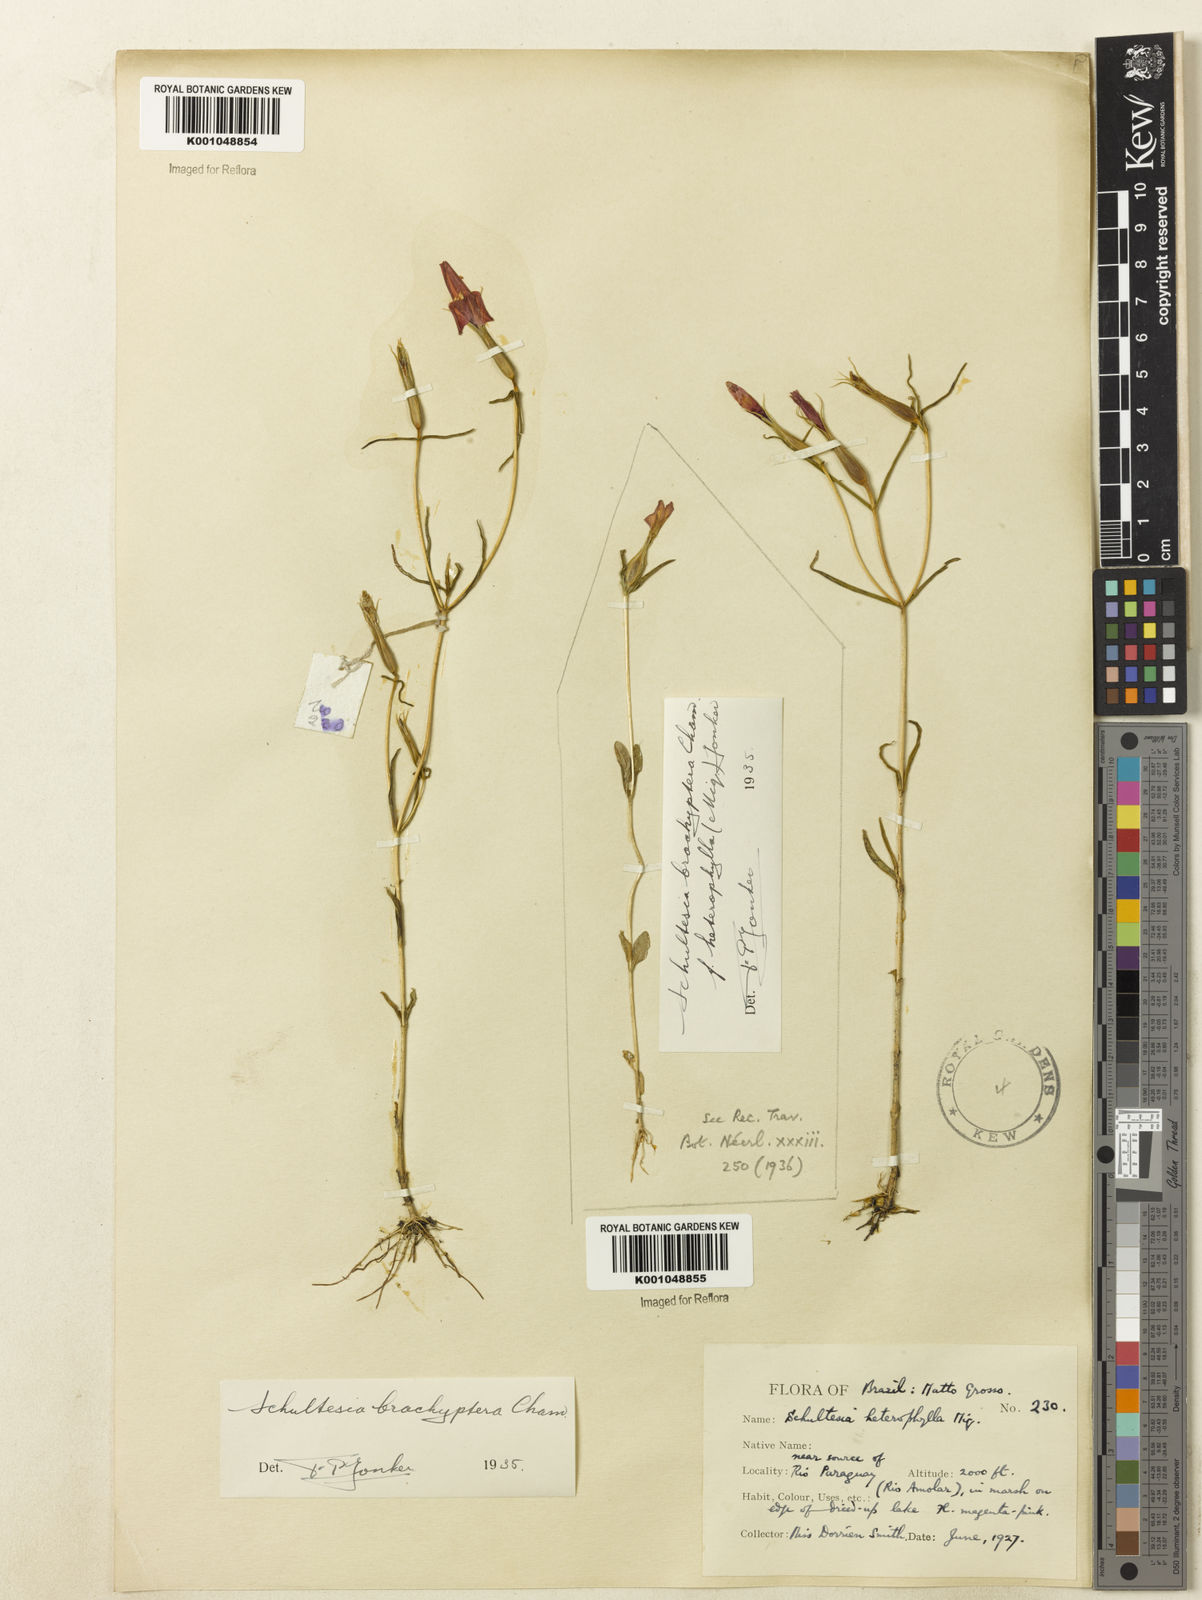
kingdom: Plantae
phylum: Tracheophyta
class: Magnoliopsida
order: Gentianales
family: Gentianaceae
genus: Schultesia
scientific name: Schultesia brachyptera
